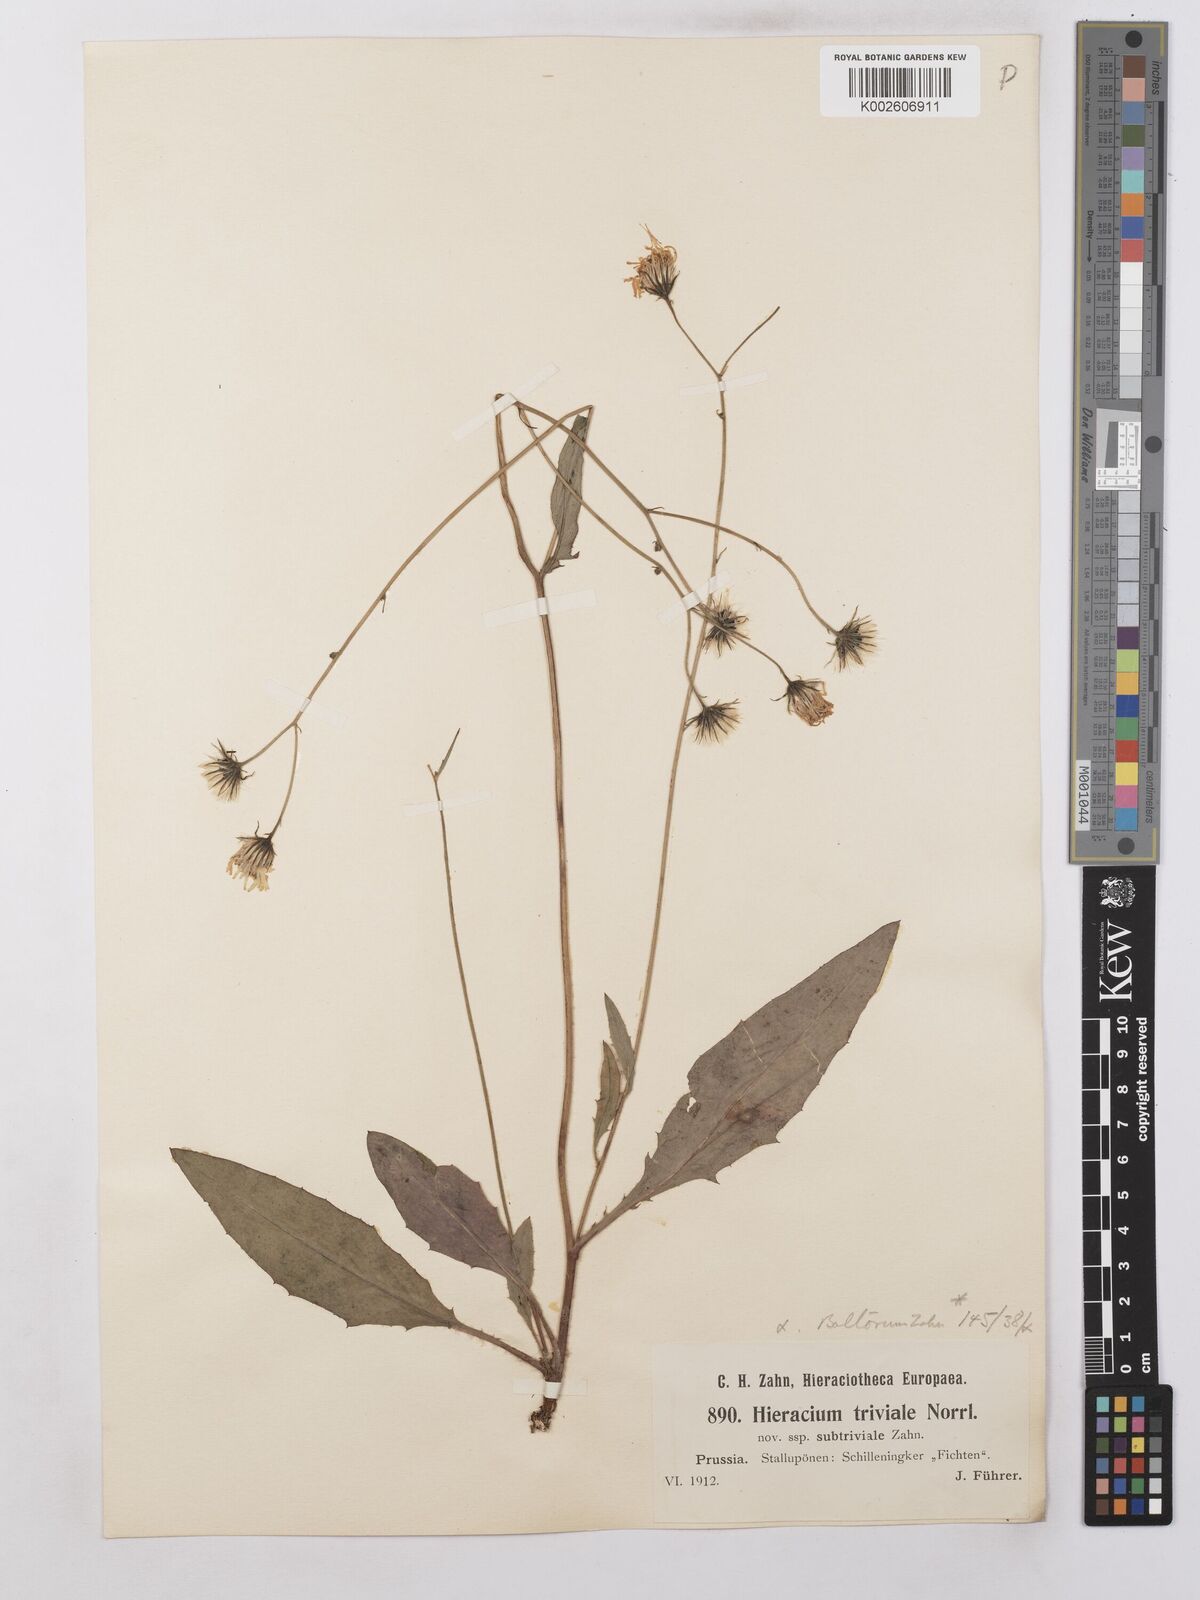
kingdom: Plantae
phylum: Tracheophyta
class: Magnoliopsida
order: Asterales
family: Asteraceae
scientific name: Asteraceae
